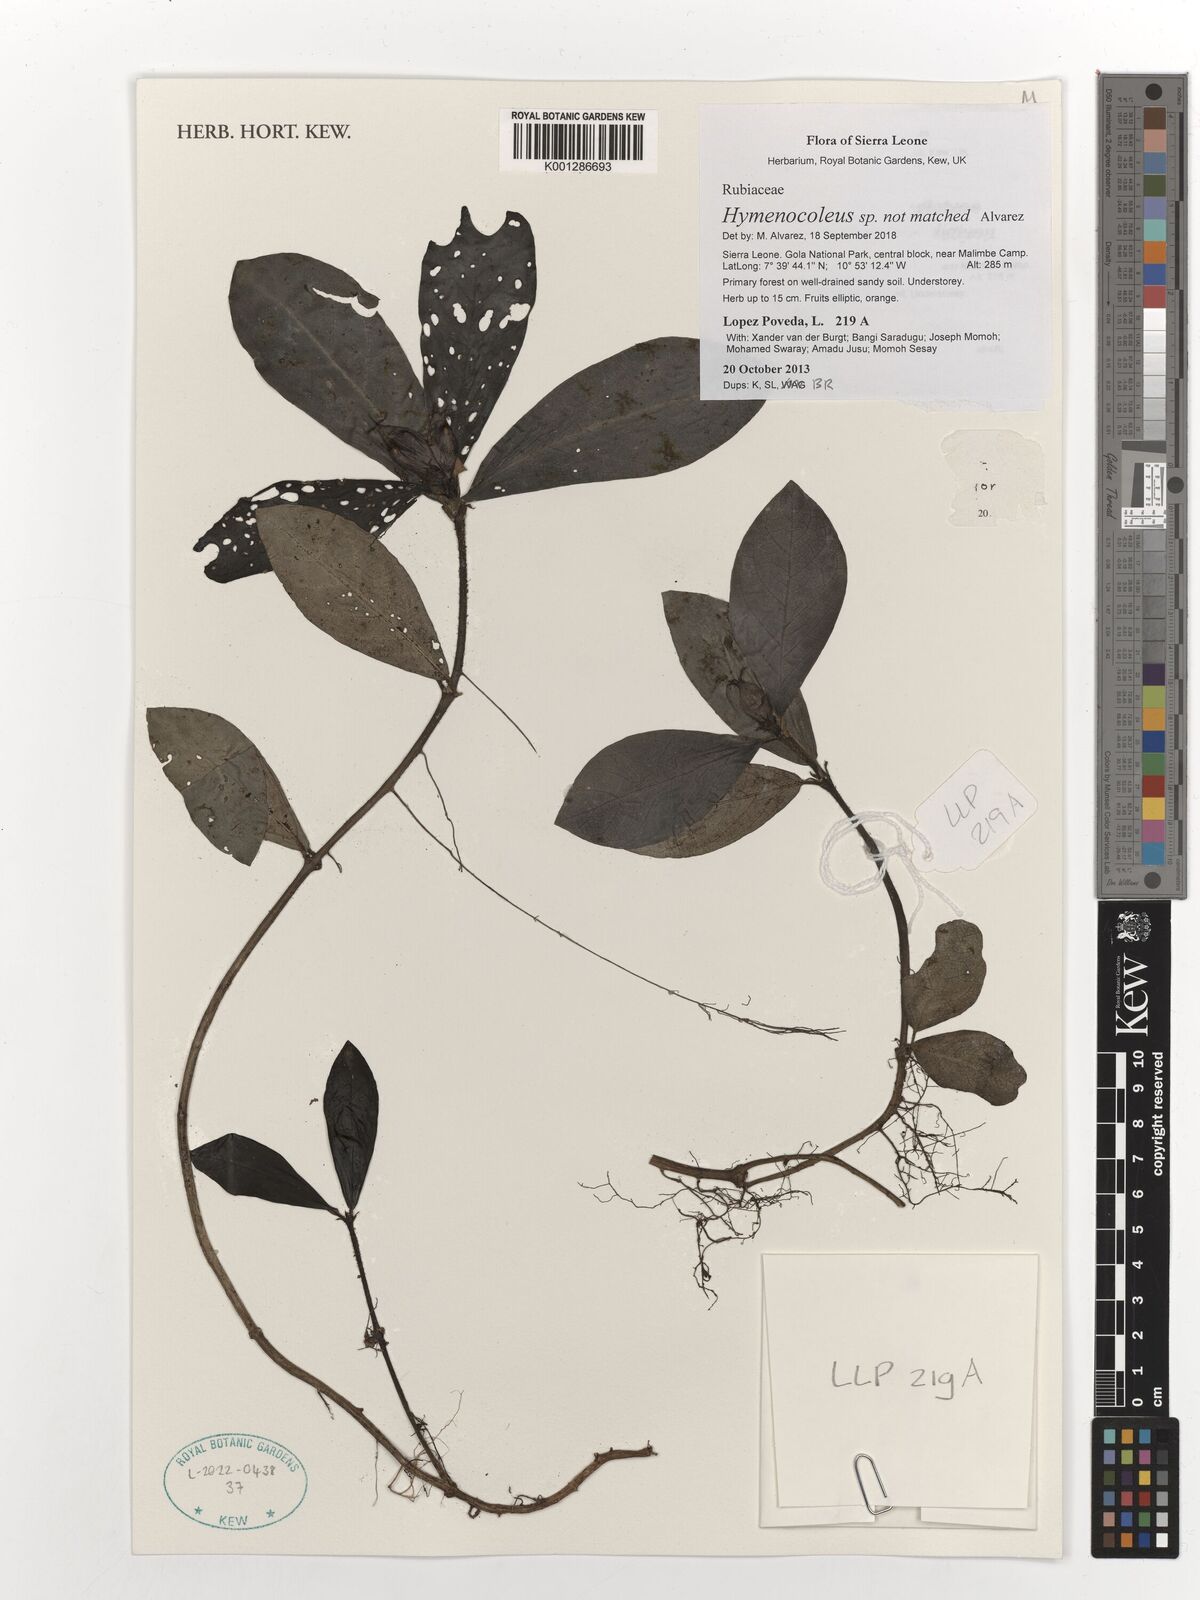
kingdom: Plantae
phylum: Tracheophyta
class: Magnoliopsida
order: Gentianales
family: Rubiaceae
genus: Hymenocoleus
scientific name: Hymenocoleus
